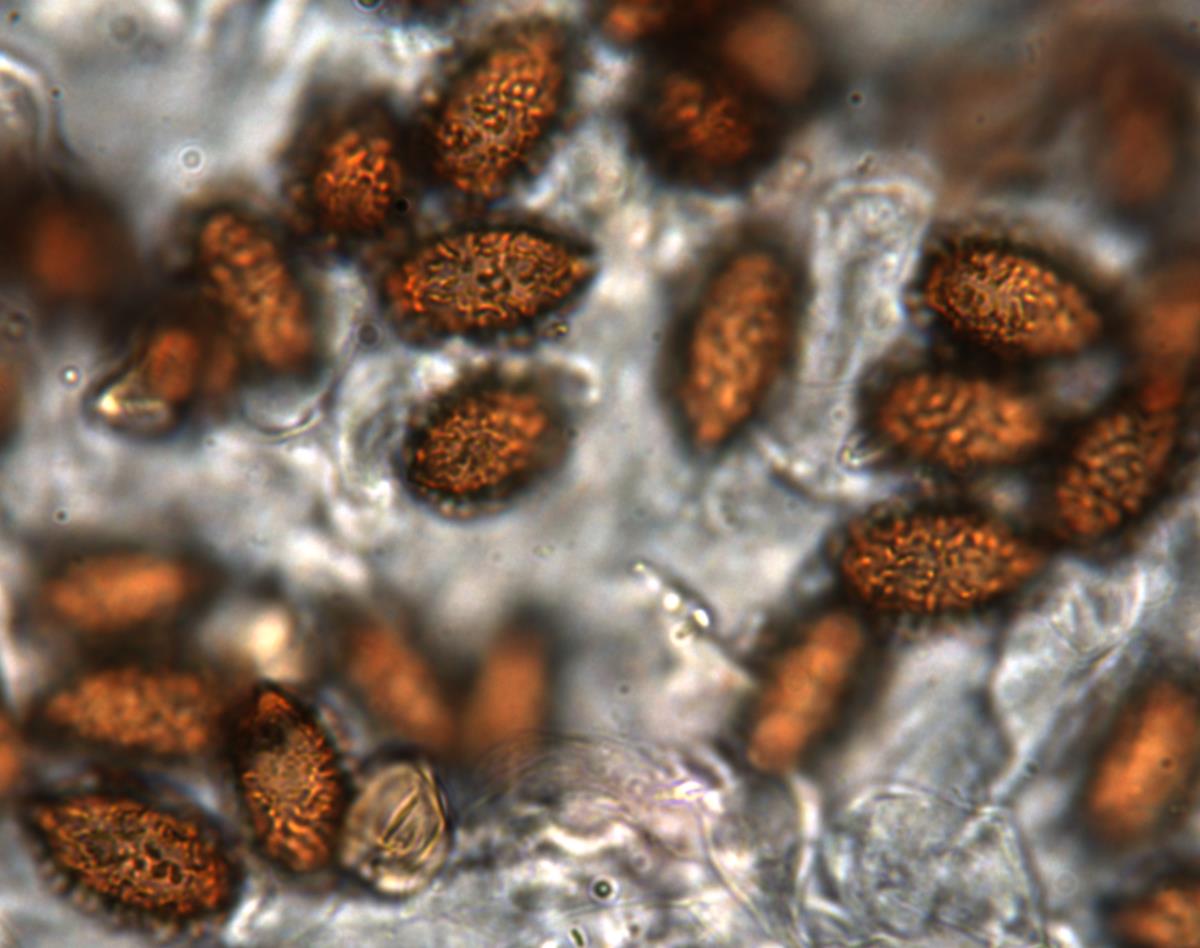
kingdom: Fungi
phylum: Basidiomycota
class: Agaricomycetes
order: Agaricales
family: Cortinariaceae
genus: Cortinarius
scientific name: Cortinarius beeverorum
